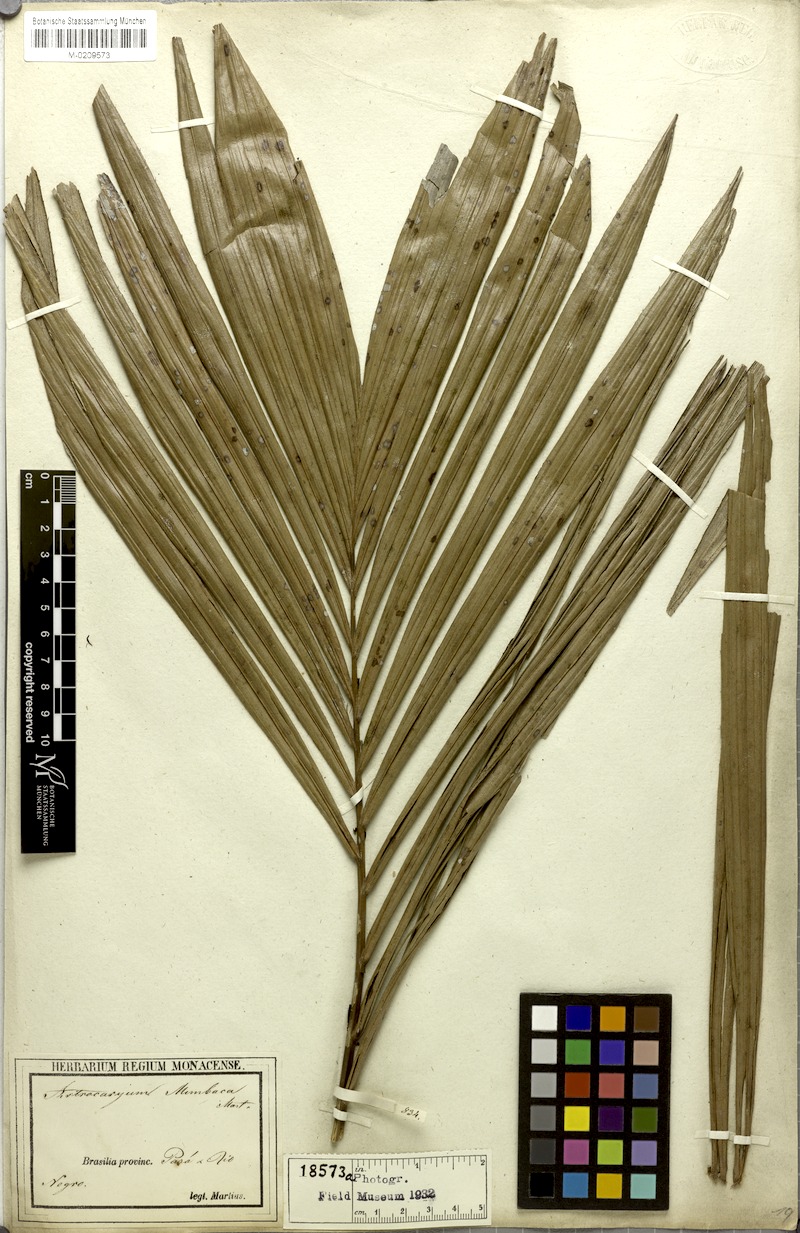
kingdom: Plantae
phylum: Tracheophyta
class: Liliopsida
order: Arecales
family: Arecaceae
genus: Astrocaryum
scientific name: Astrocaryum aculeatum
